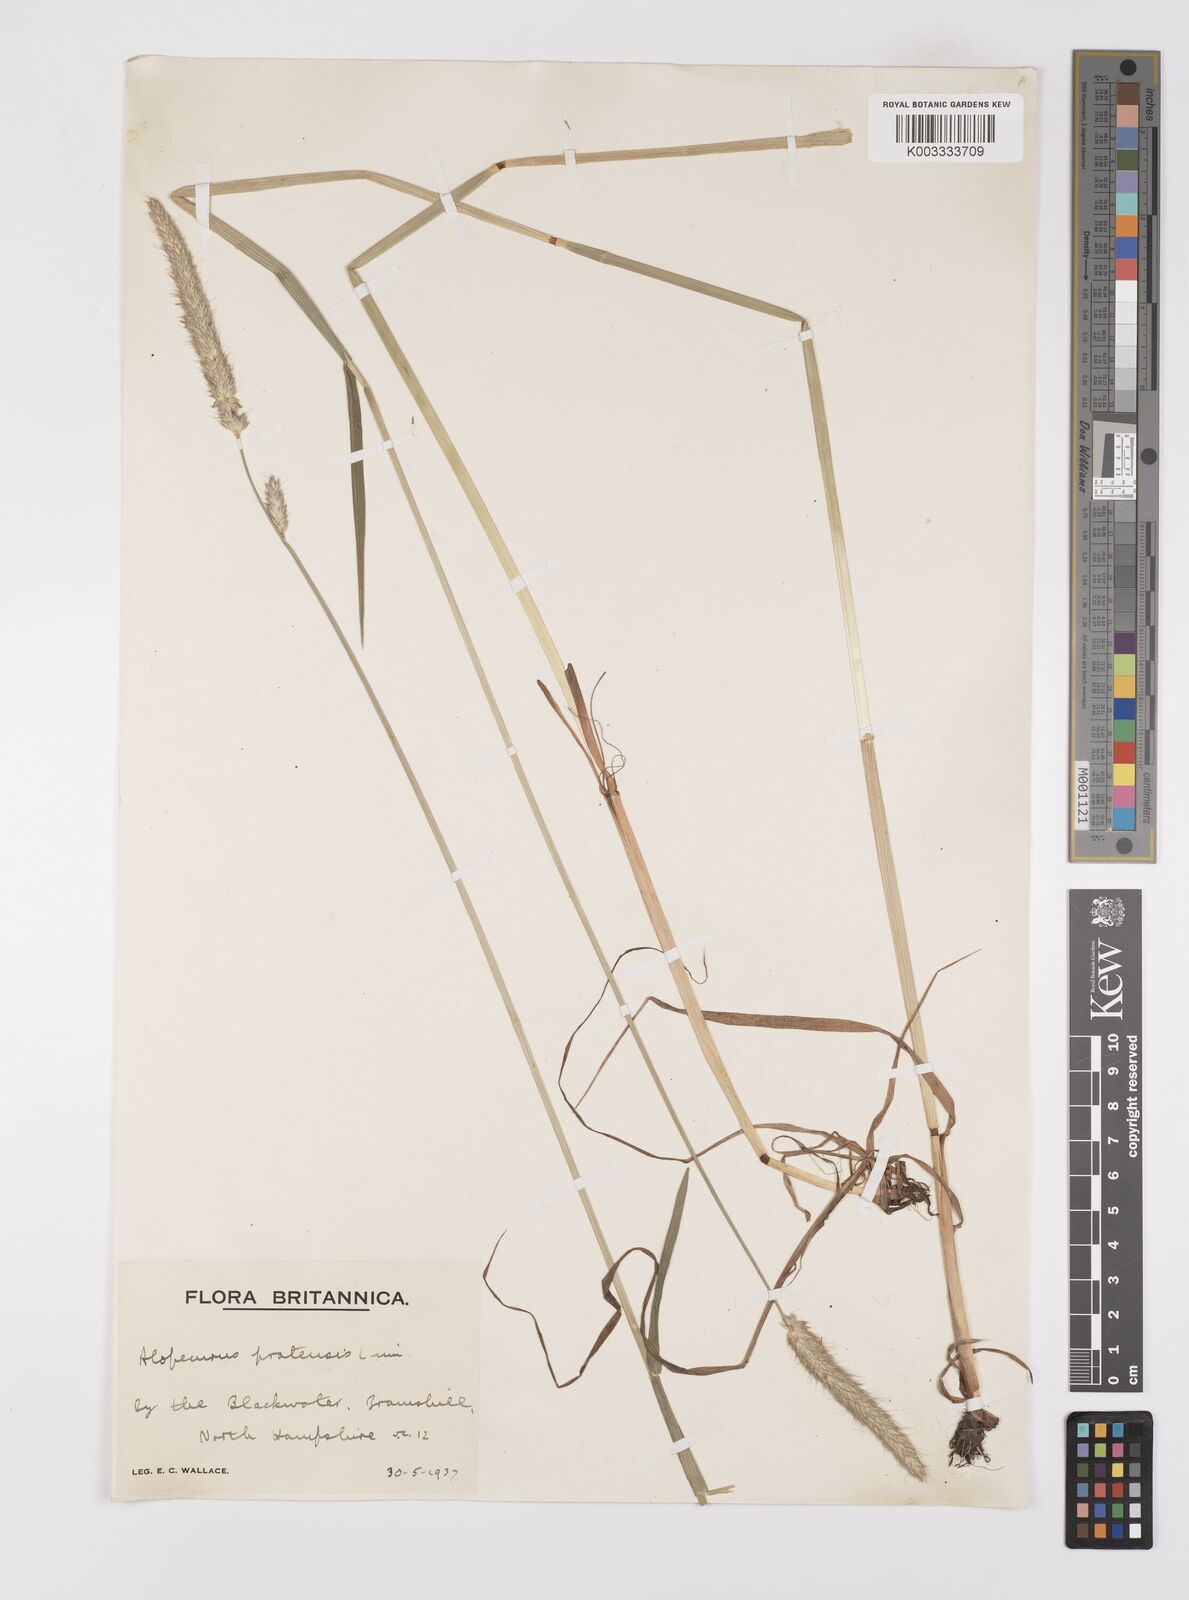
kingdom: Plantae
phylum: Tracheophyta
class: Liliopsida
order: Poales
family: Poaceae
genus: Alopecurus
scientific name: Alopecurus pratensis
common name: Meadow foxtail
